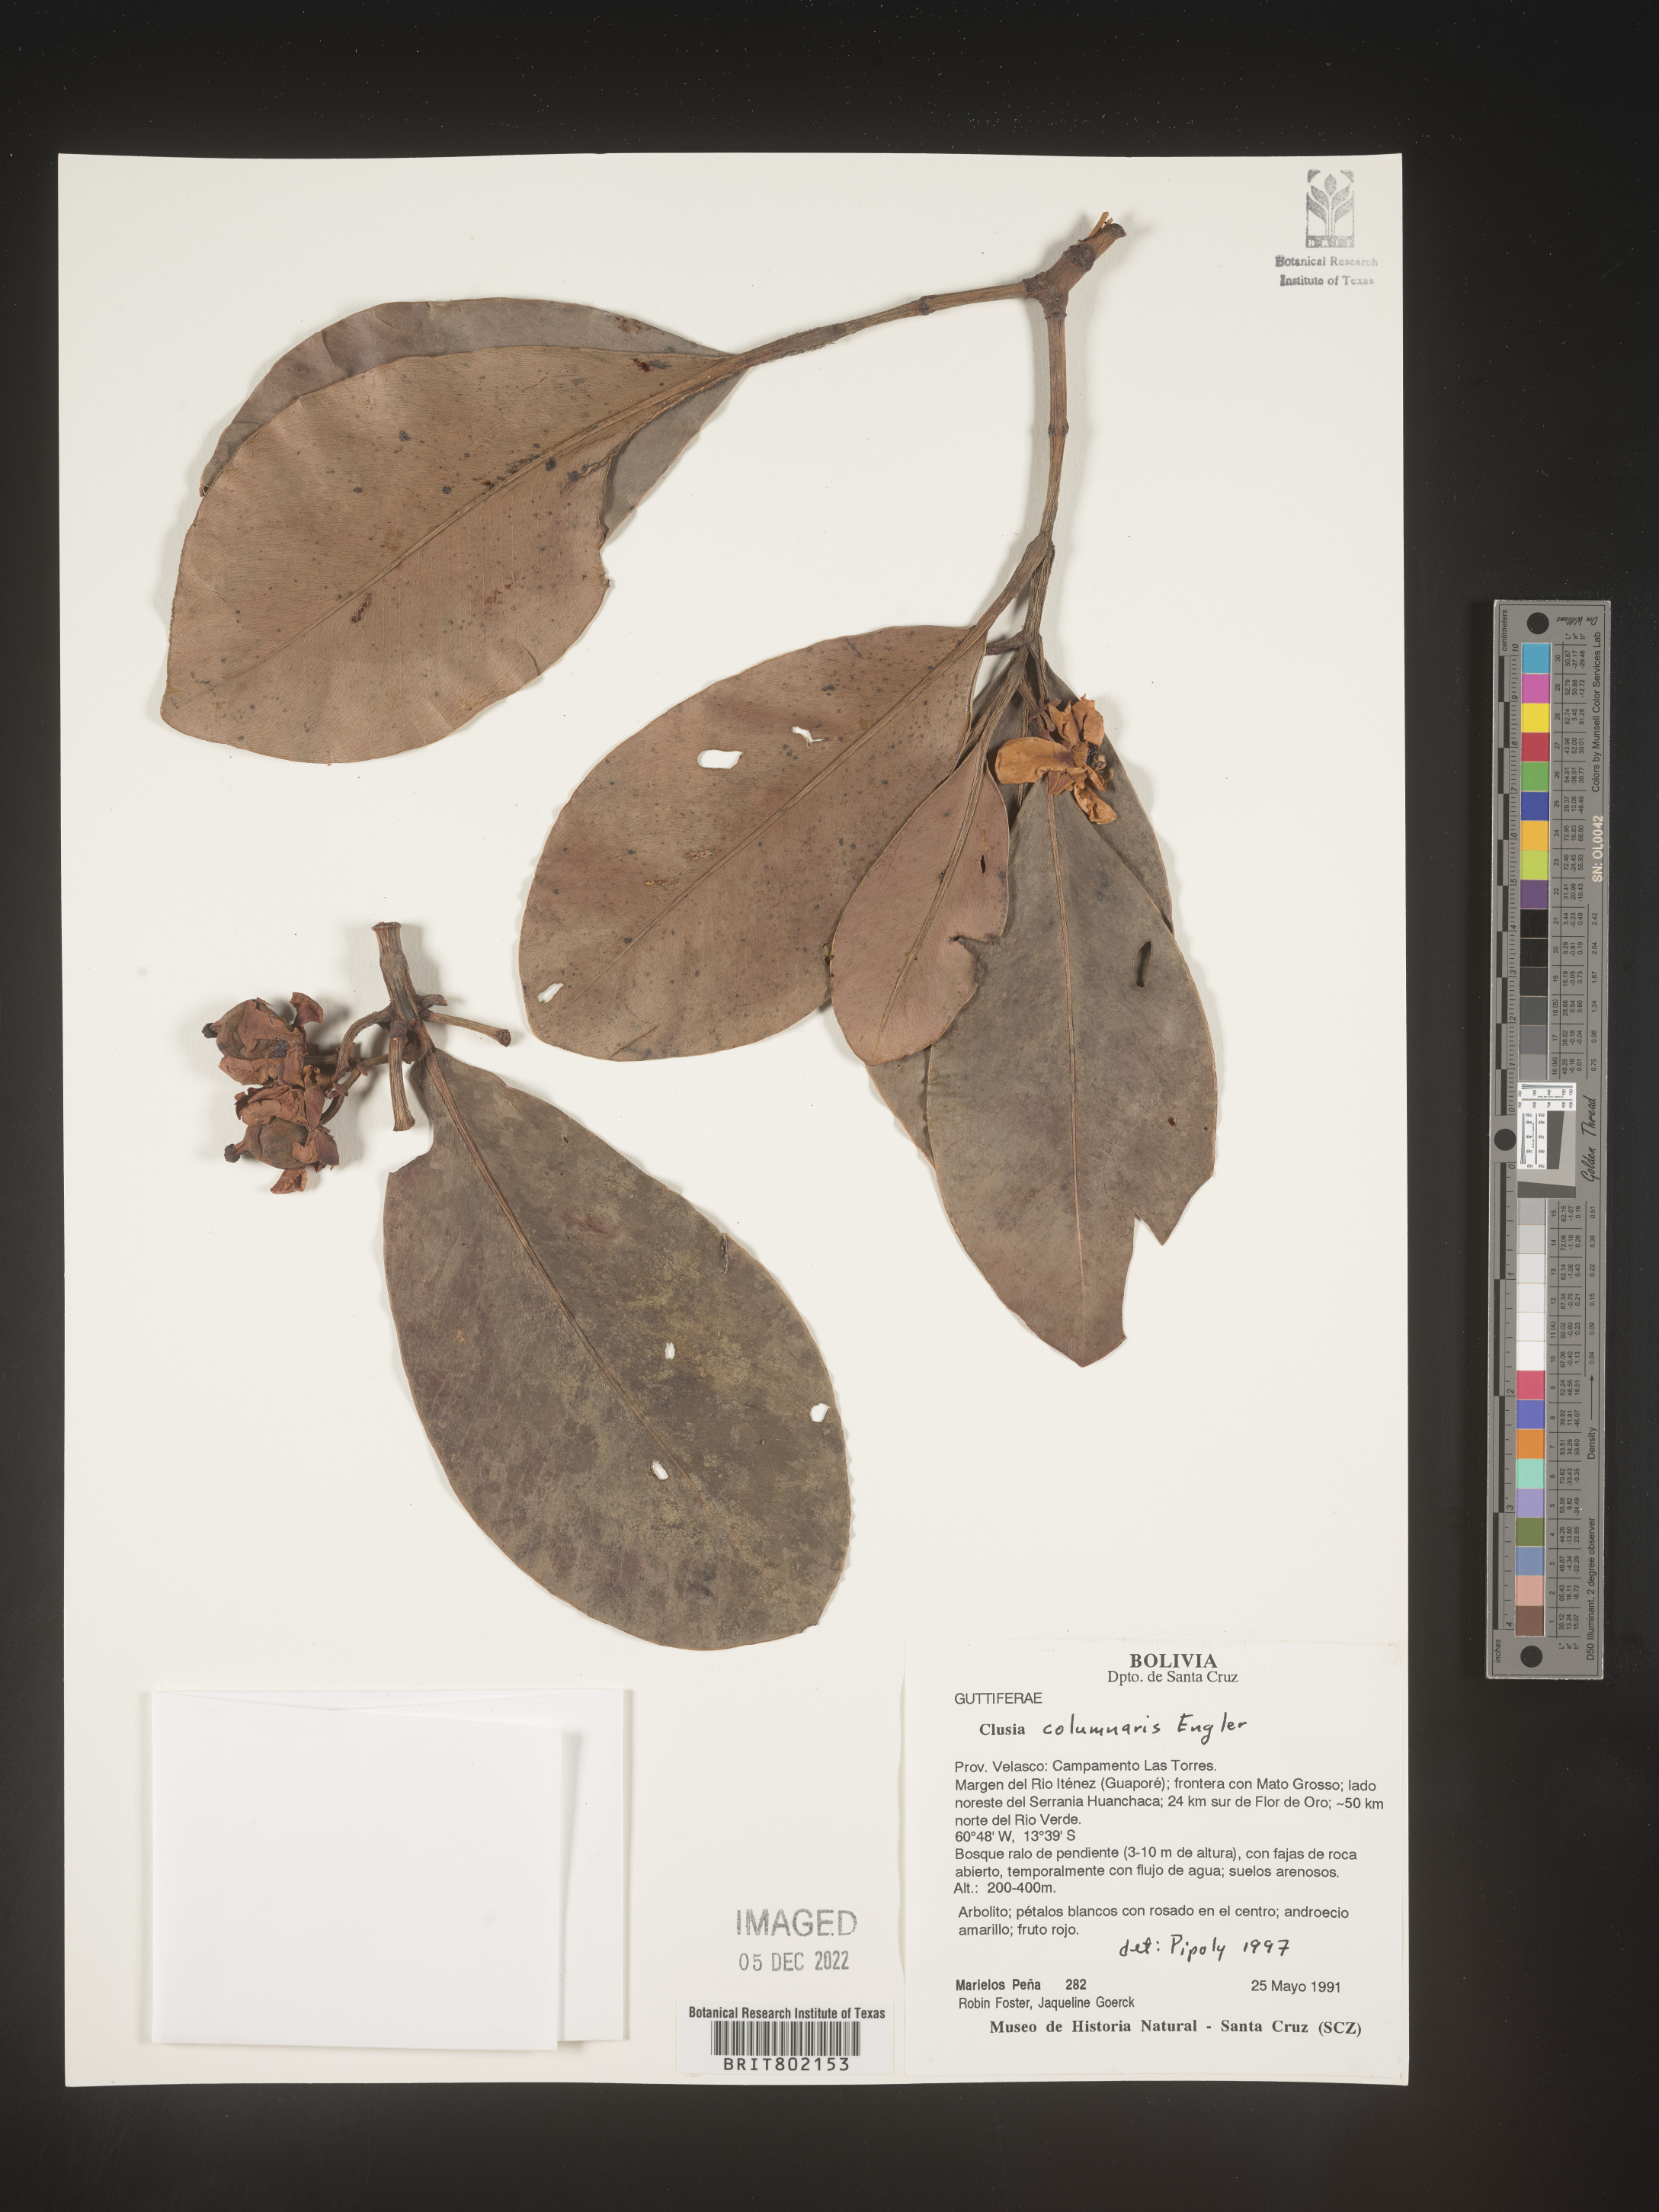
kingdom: Plantae
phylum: Tracheophyta
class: Magnoliopsida
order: Malpighiales
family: Clusiaceae
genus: Clusia
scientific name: Clusia columnaris
